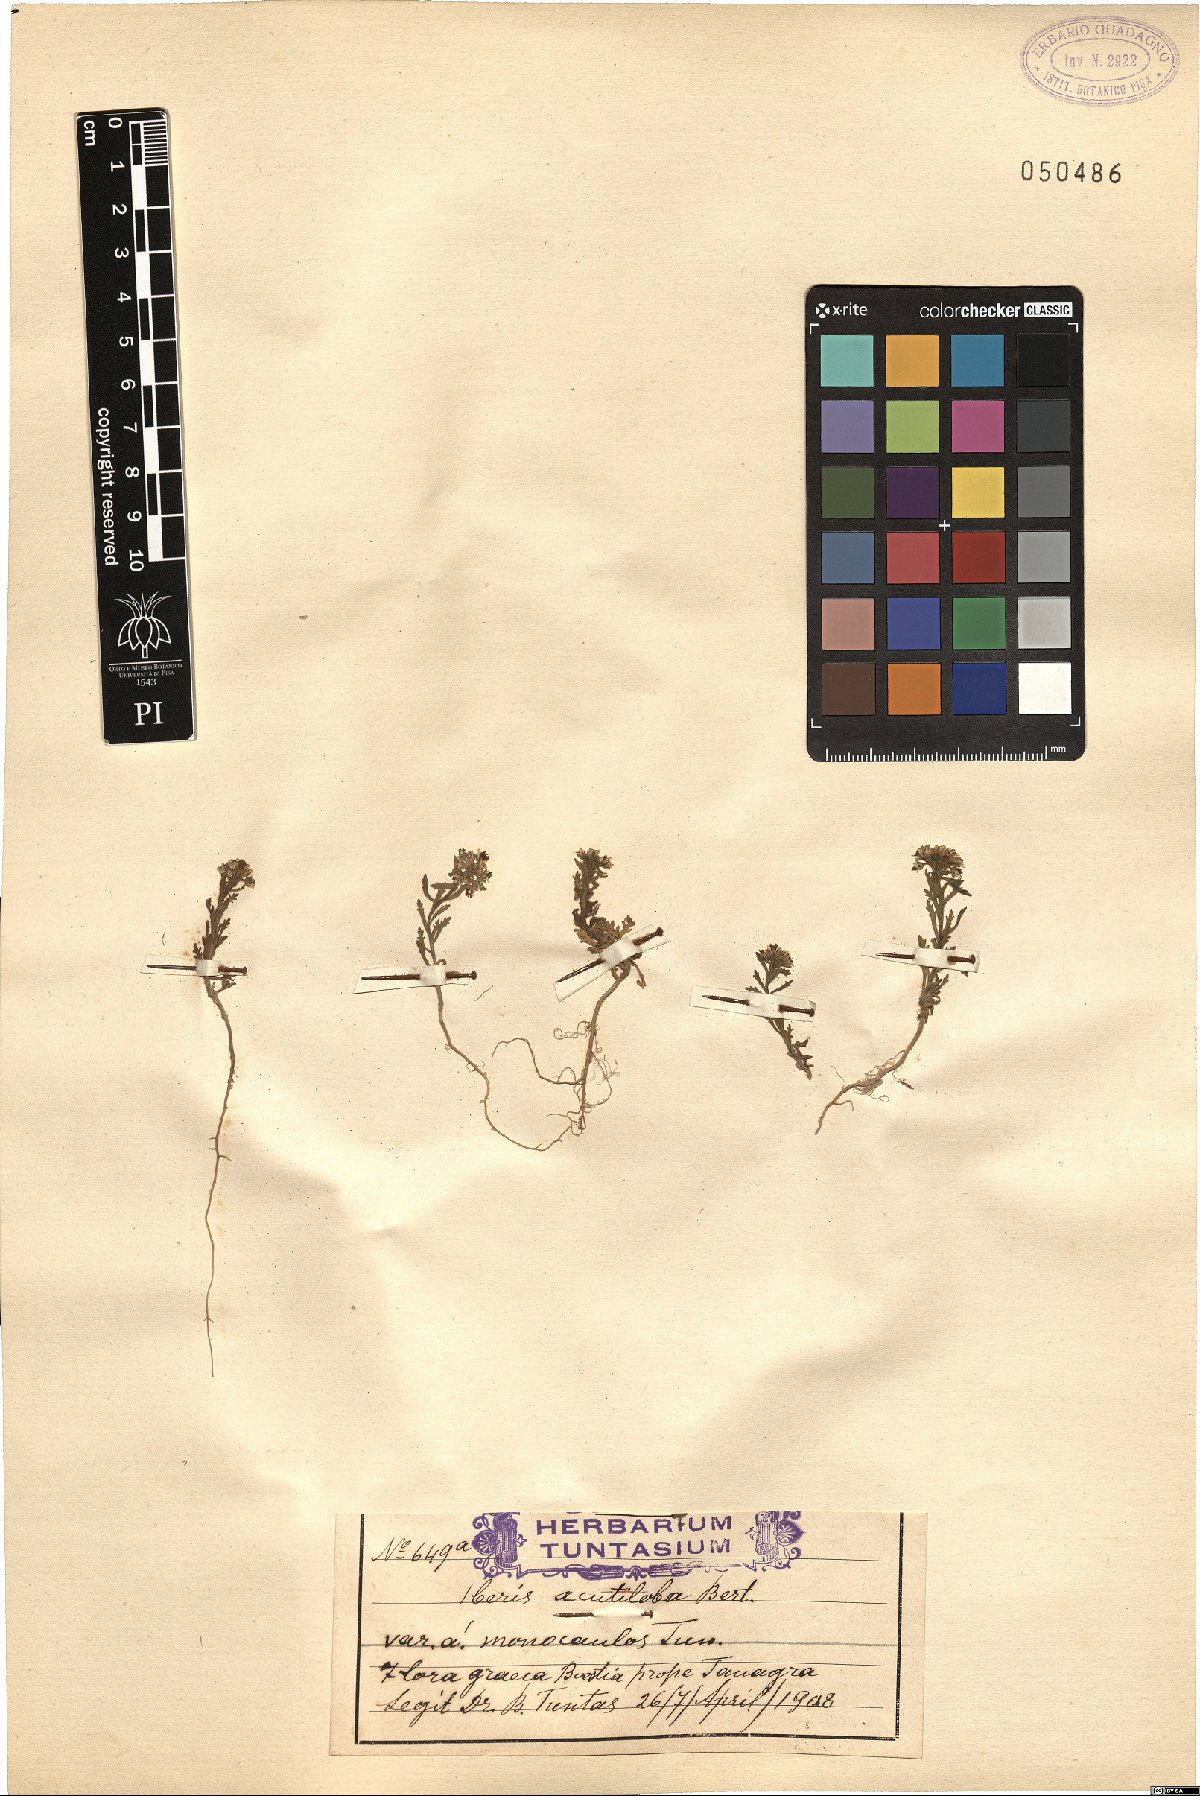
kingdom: Plantae
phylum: Tracheophyta
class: Magnoliopsida
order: Brassicales
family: Brassicaceae
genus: Iberis
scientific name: Iberis odorata
